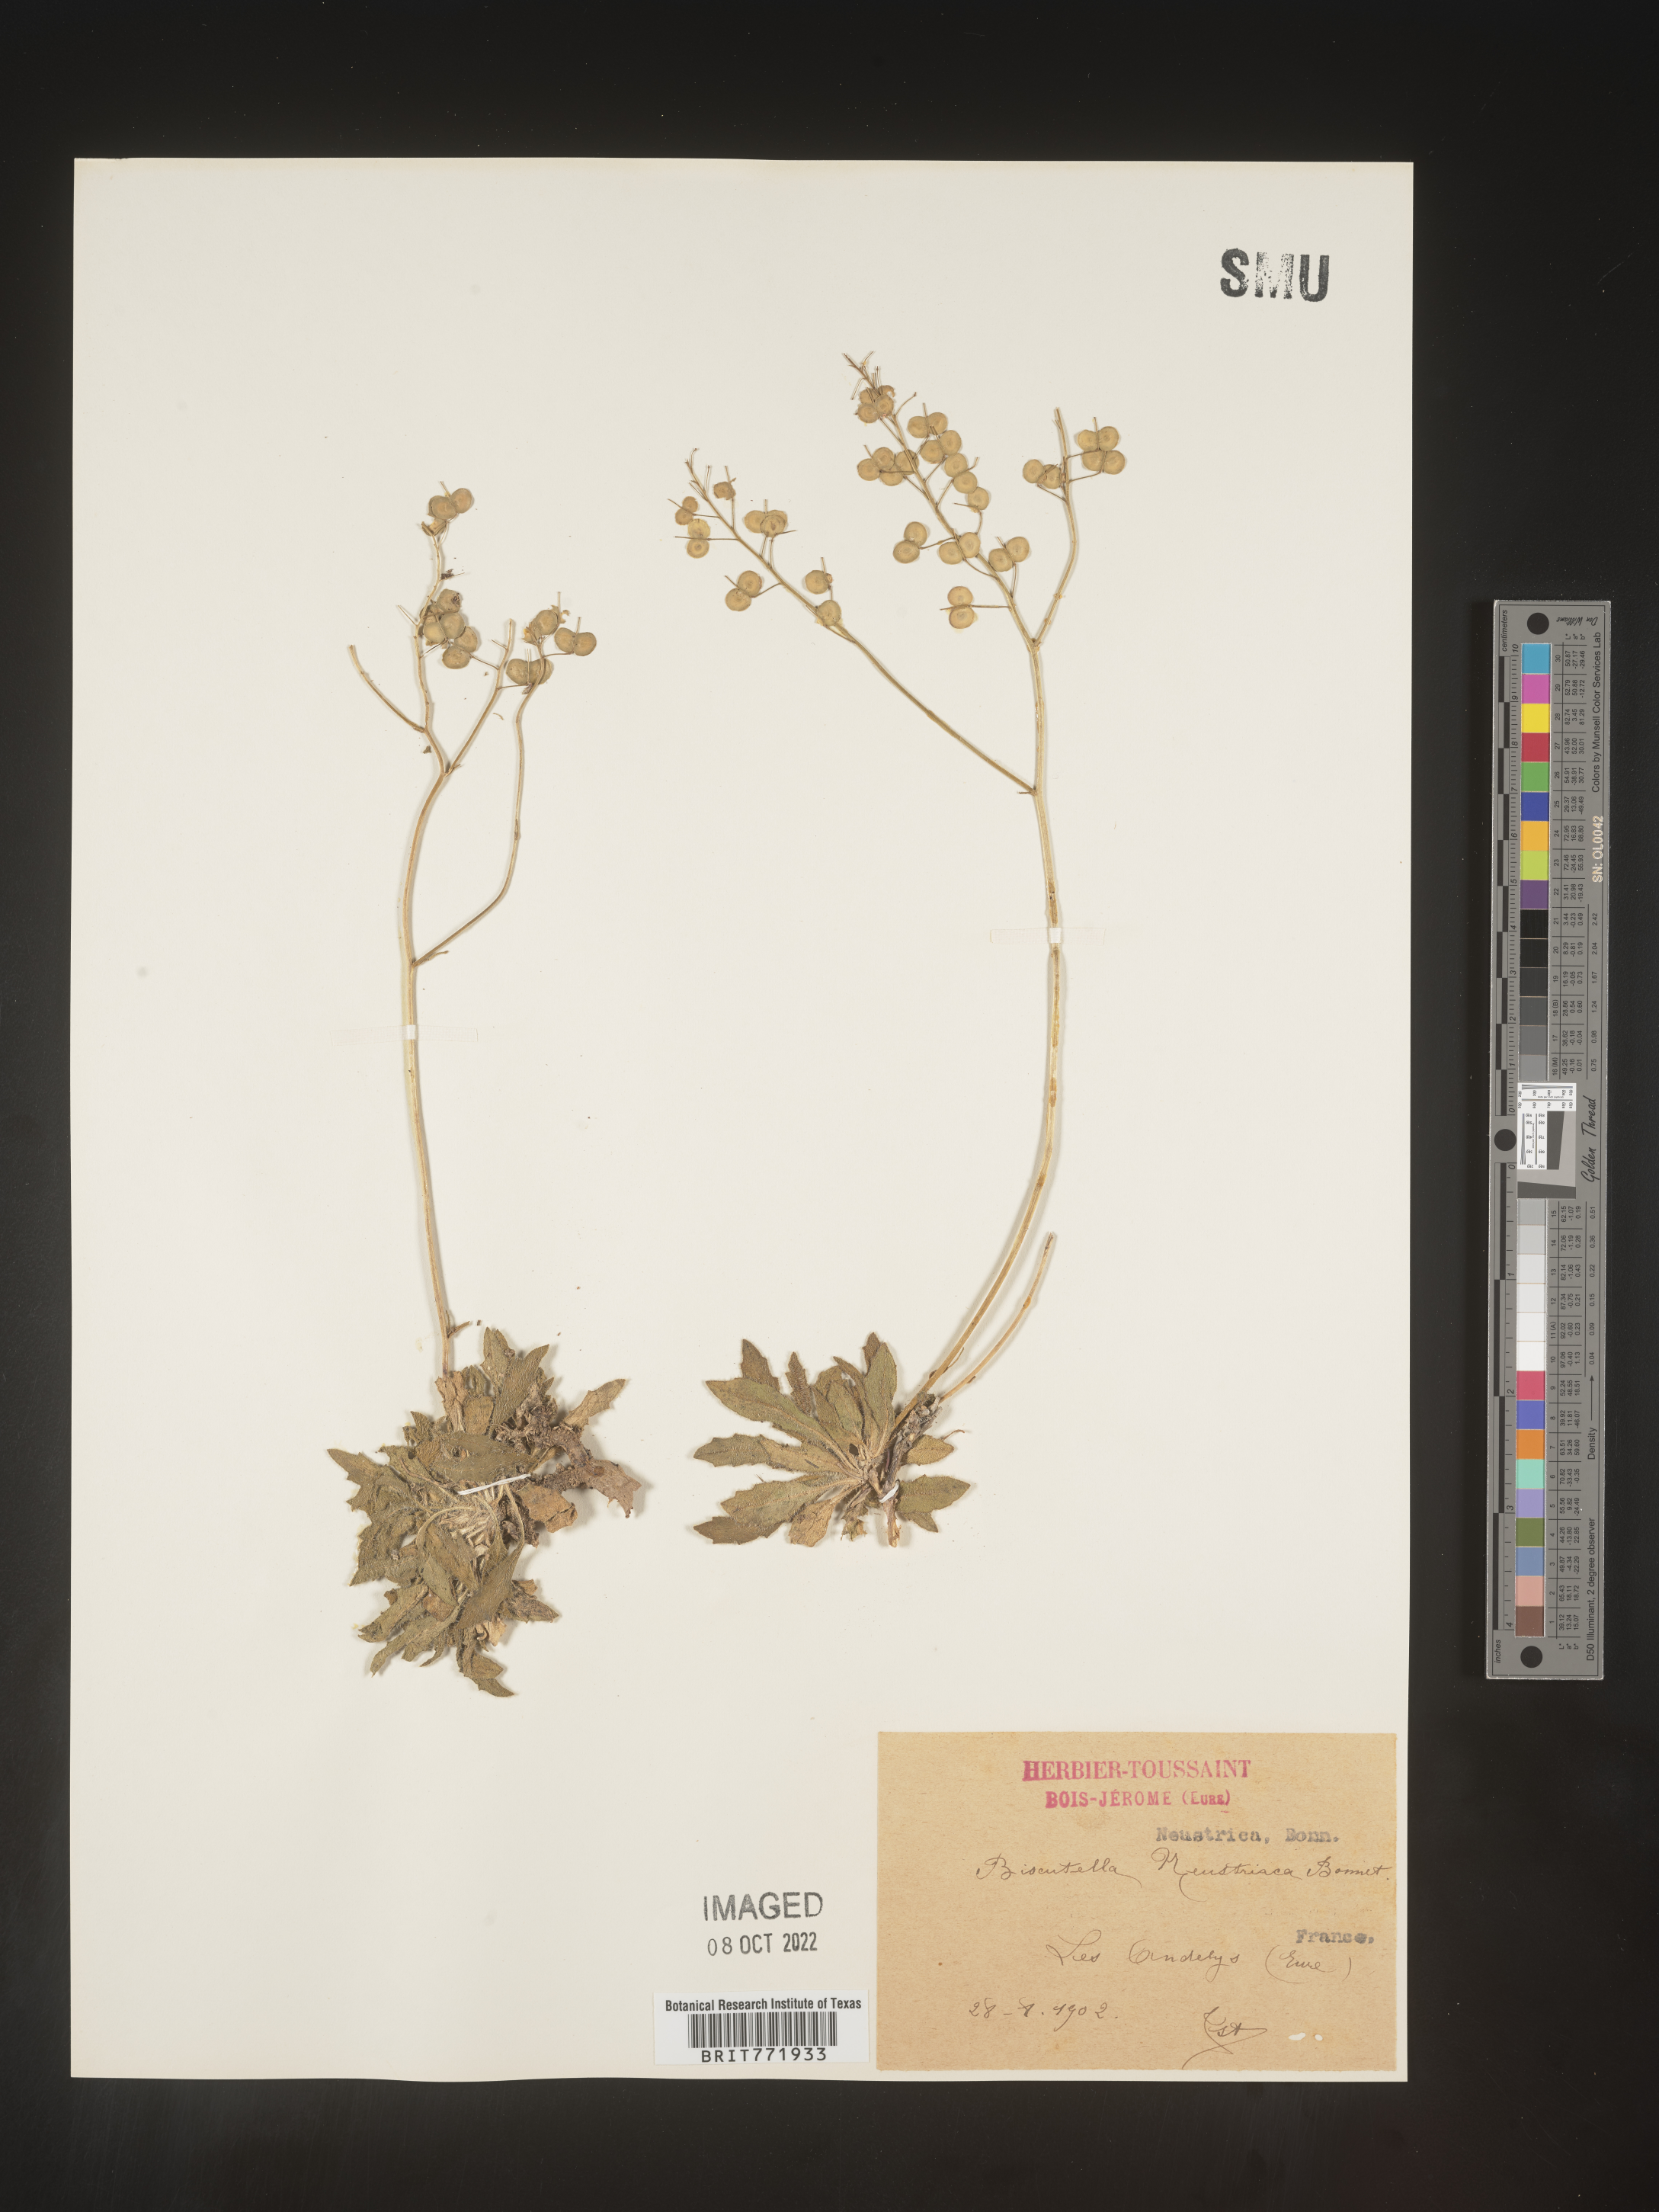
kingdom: Plantae
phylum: Tracheophyta
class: Magnoliopsida
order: Brassicales
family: Brassicaceae
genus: Biscutella
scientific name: Biscutella
